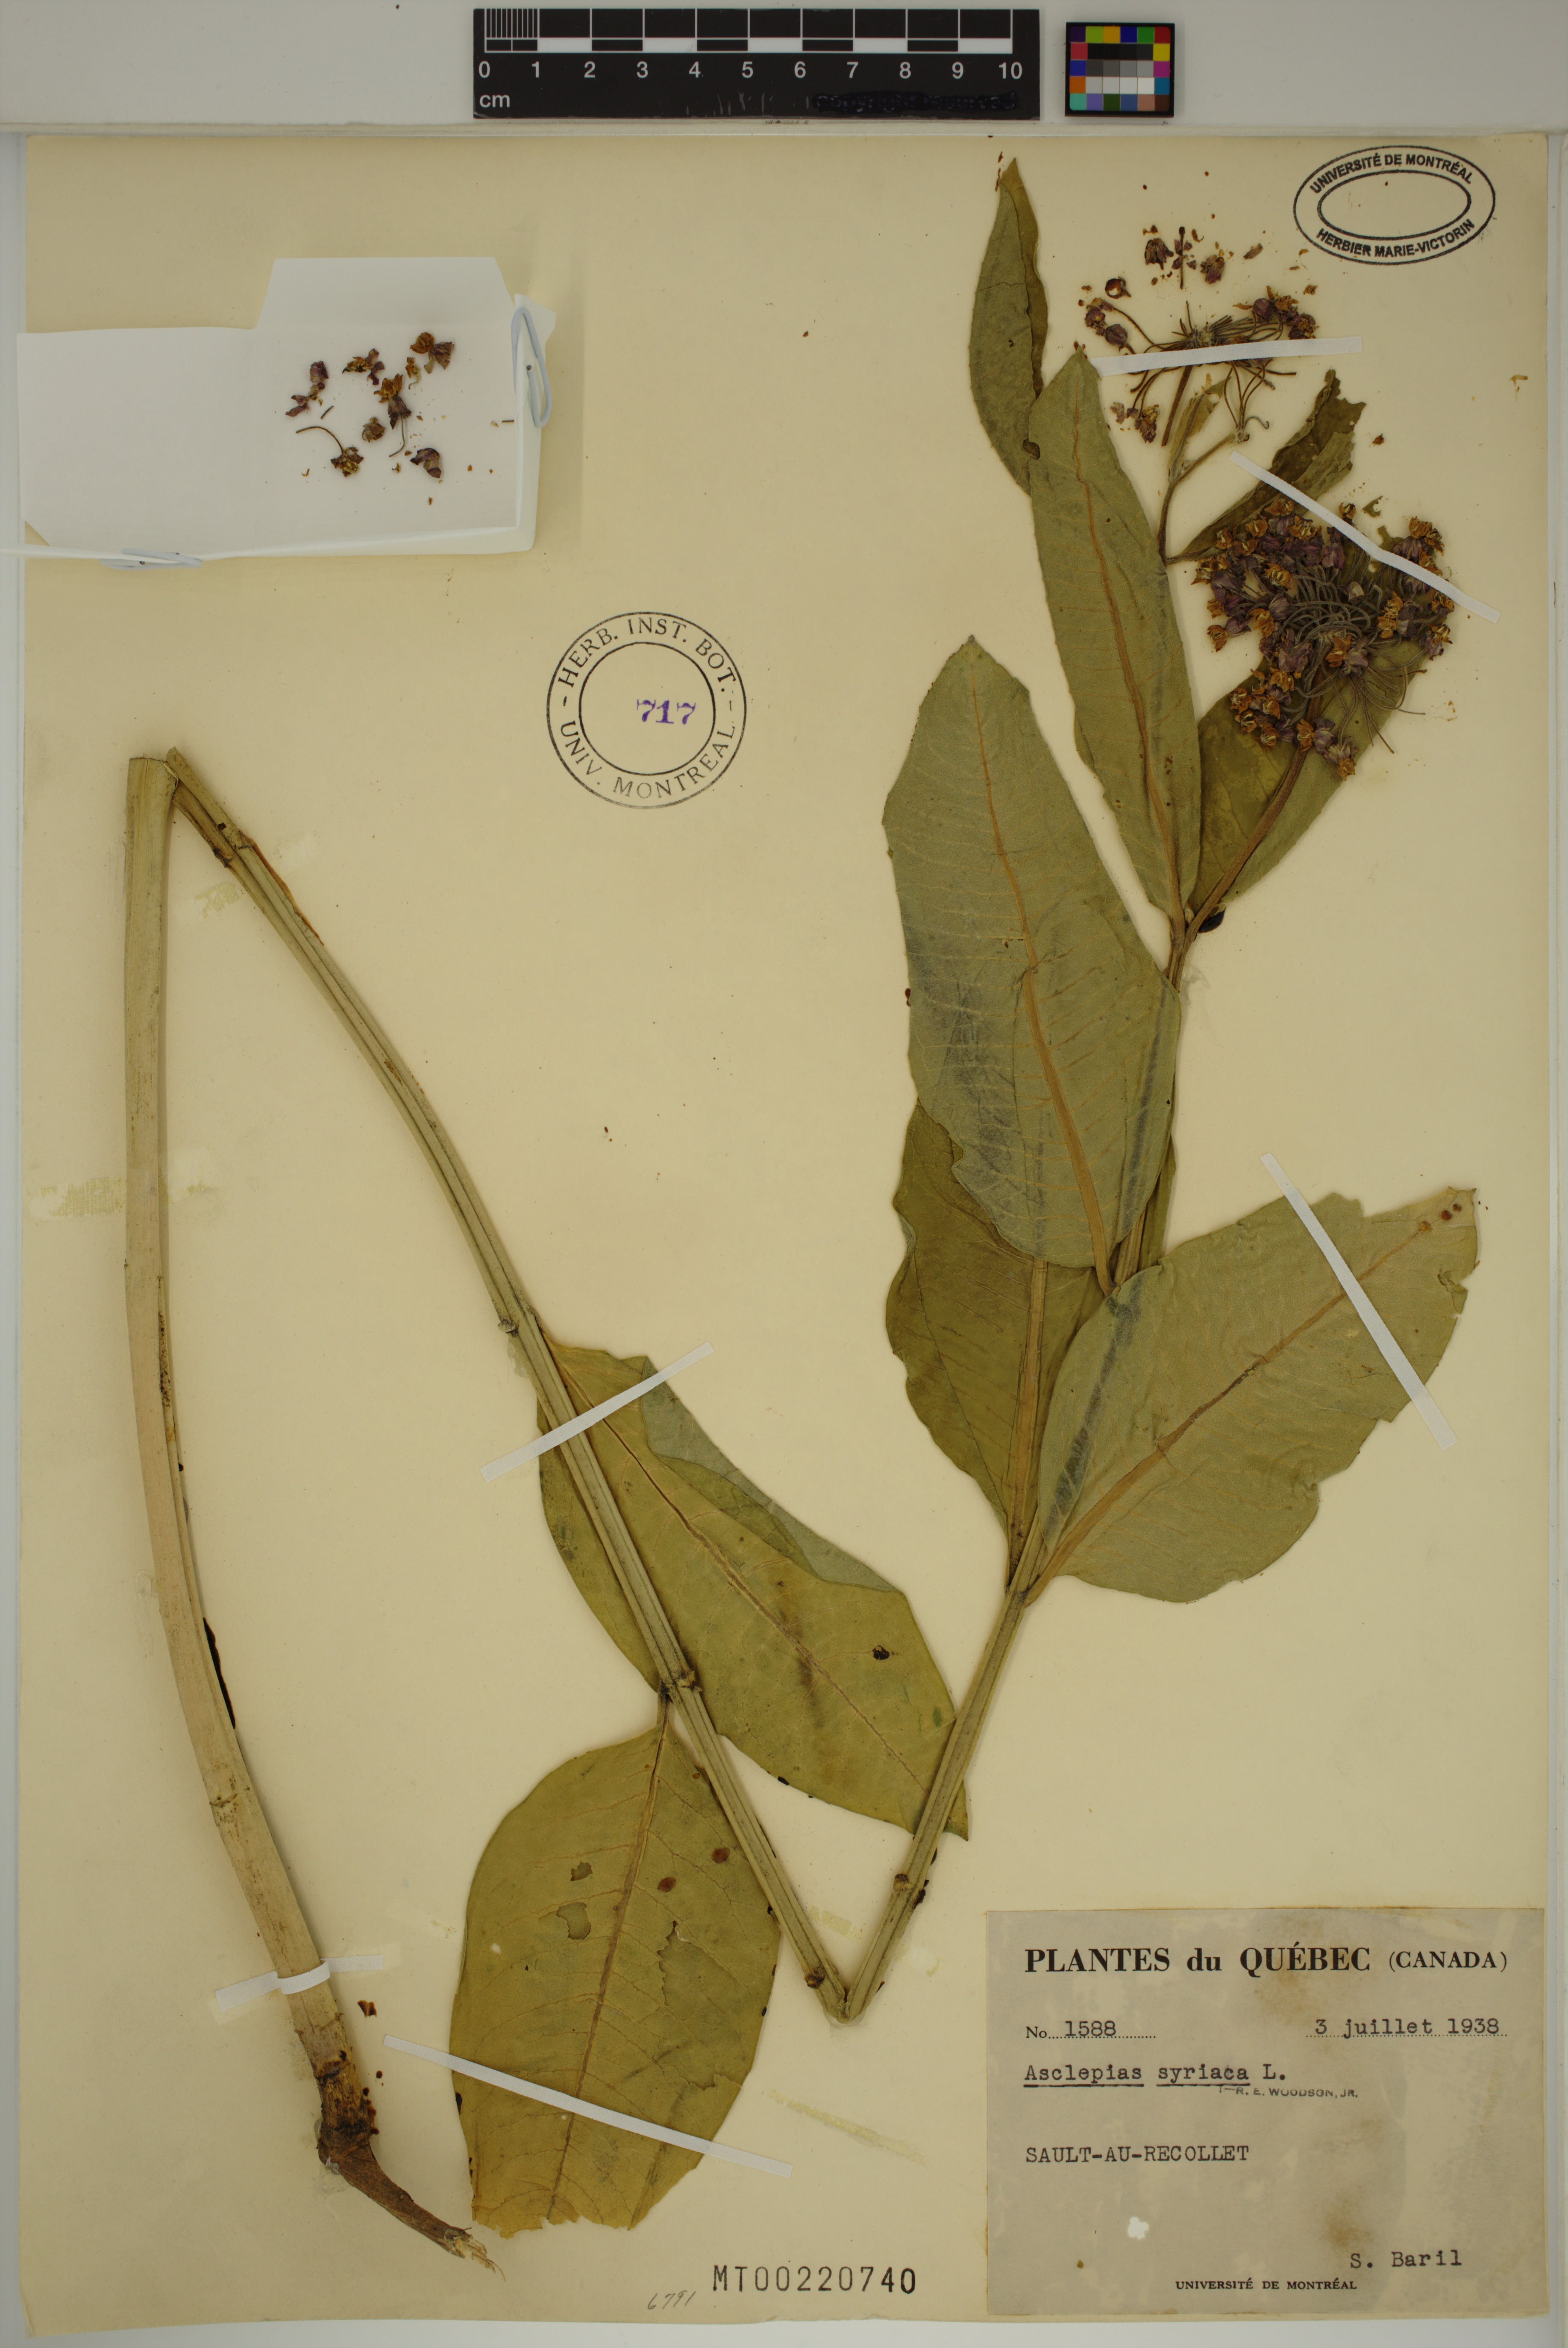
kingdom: Plantae
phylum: Tracheophyta
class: Magnoliopsida
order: Gentianales
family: Apocynaceae
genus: Asclepias
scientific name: Asclepias syriaca
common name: Common milkweed
